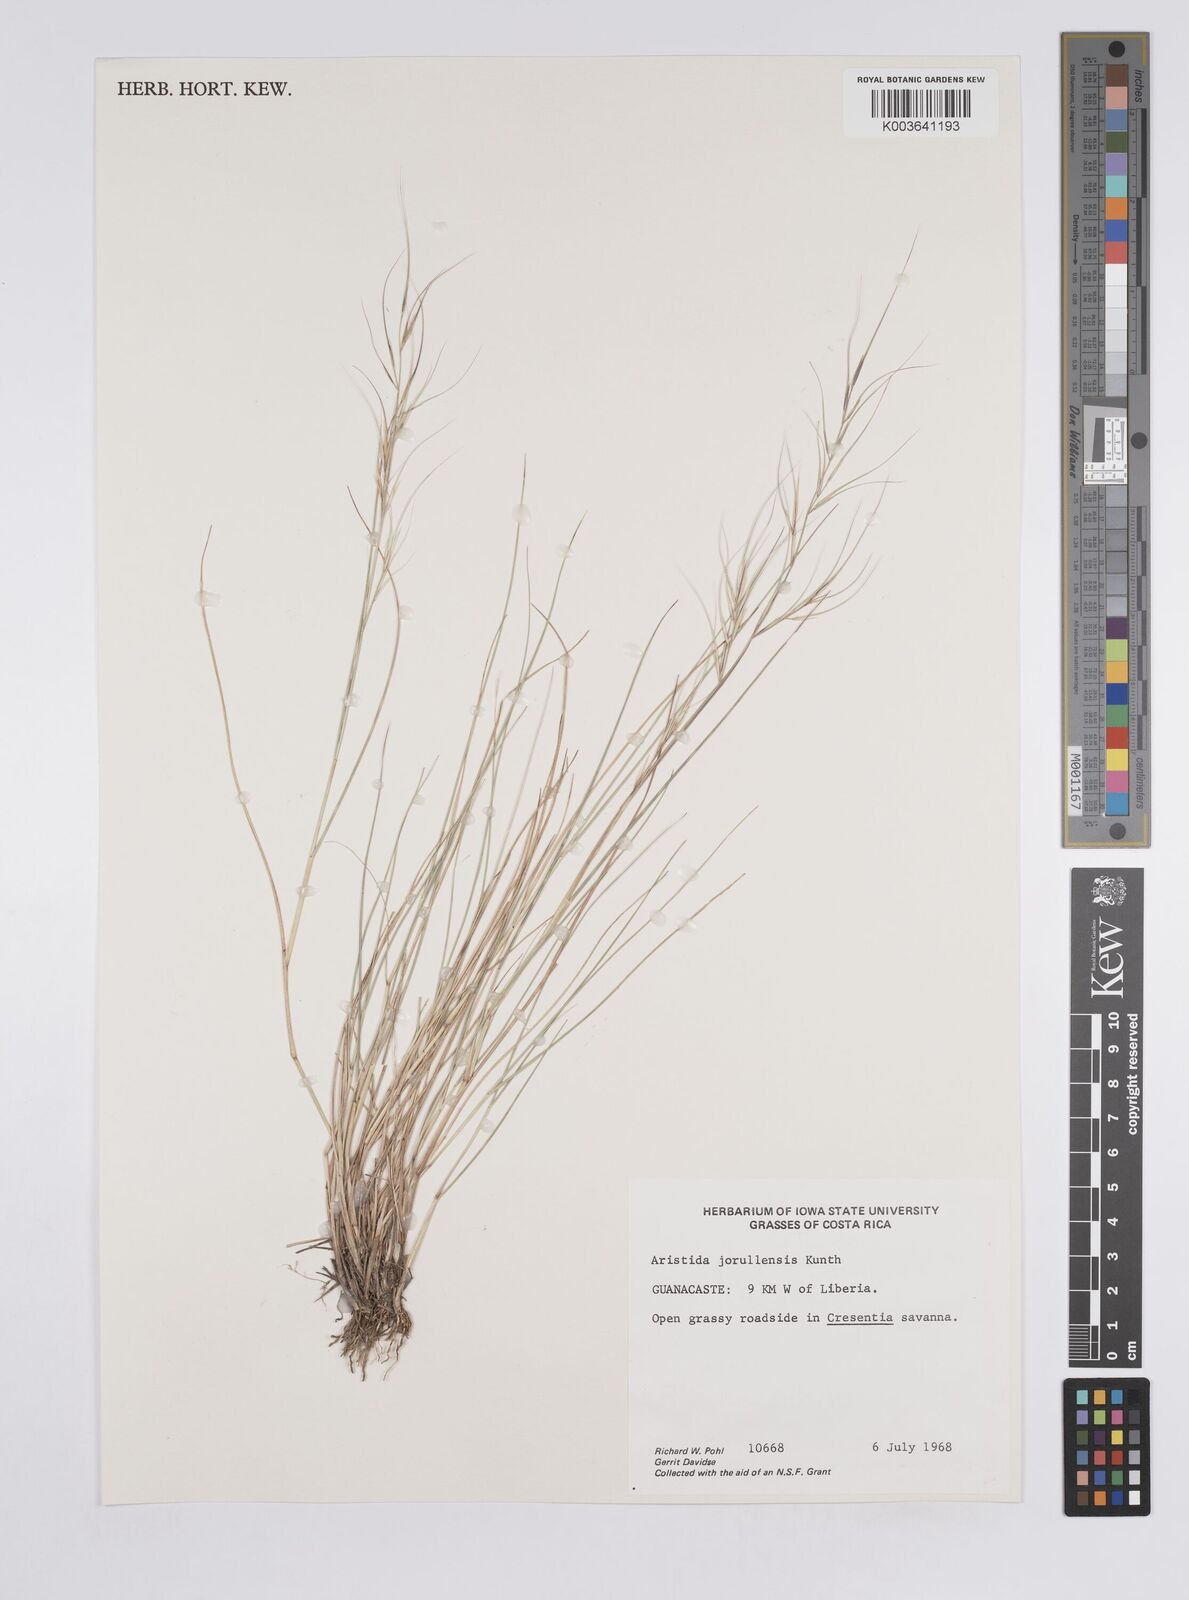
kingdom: Plantae
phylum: Tracheophyta
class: Liliopsida
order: Poales
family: Poaceae
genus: Aristida
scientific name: Aristida jorullensis
